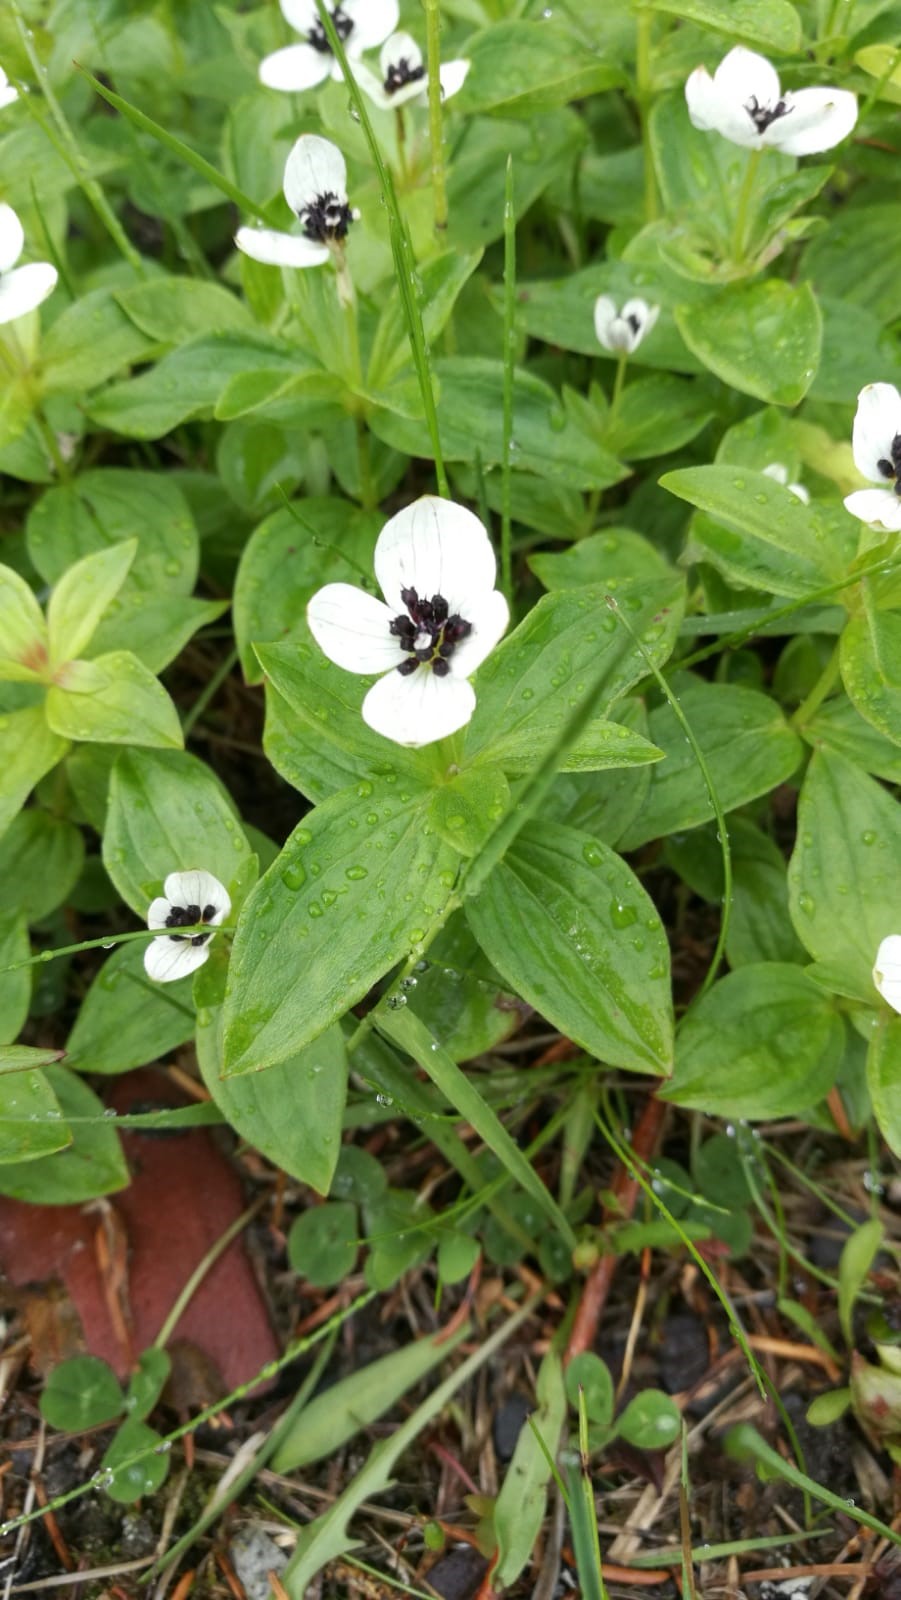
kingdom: Plantae
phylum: Tracheophyta
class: Magnoliopsida
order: Cornales
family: Cornaceae
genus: Cornus
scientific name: Cornus suecica
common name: Dwarf cornel
